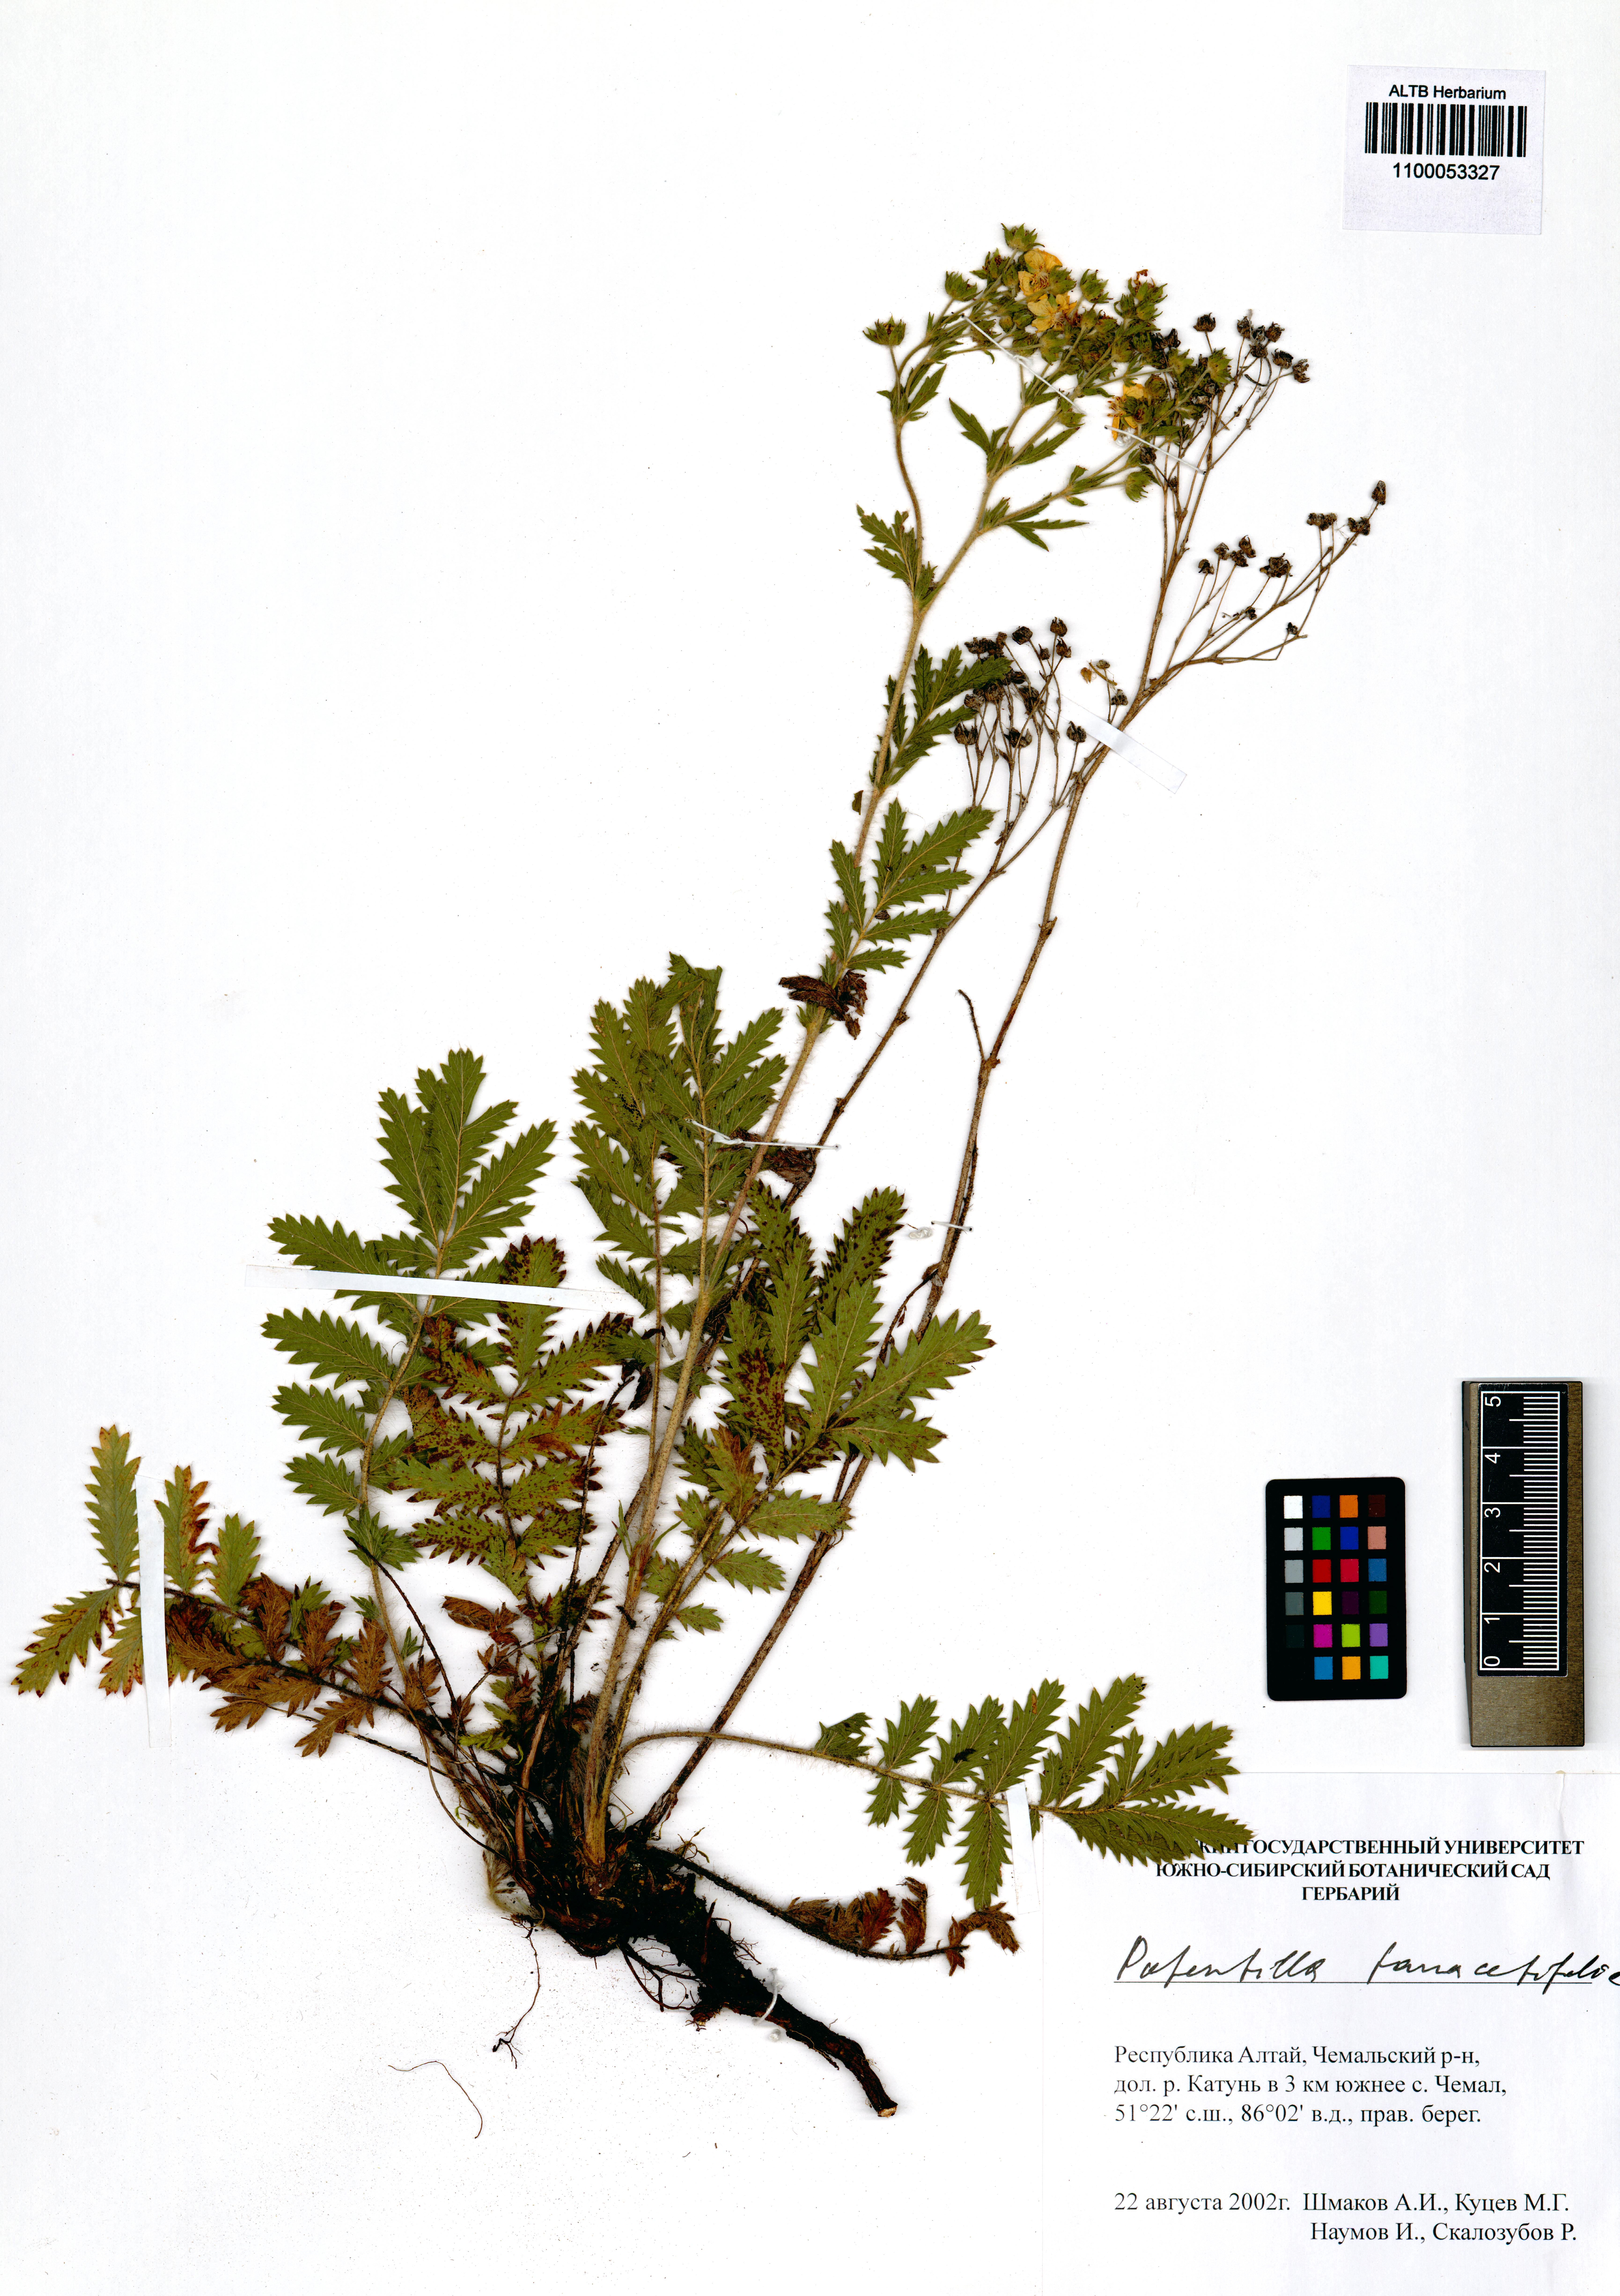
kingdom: Plantae
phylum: Tracheophyta
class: Magnoliopsida
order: Rosales
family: Rosaceae
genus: Potentilla
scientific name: Potentilla tanacetifolia
